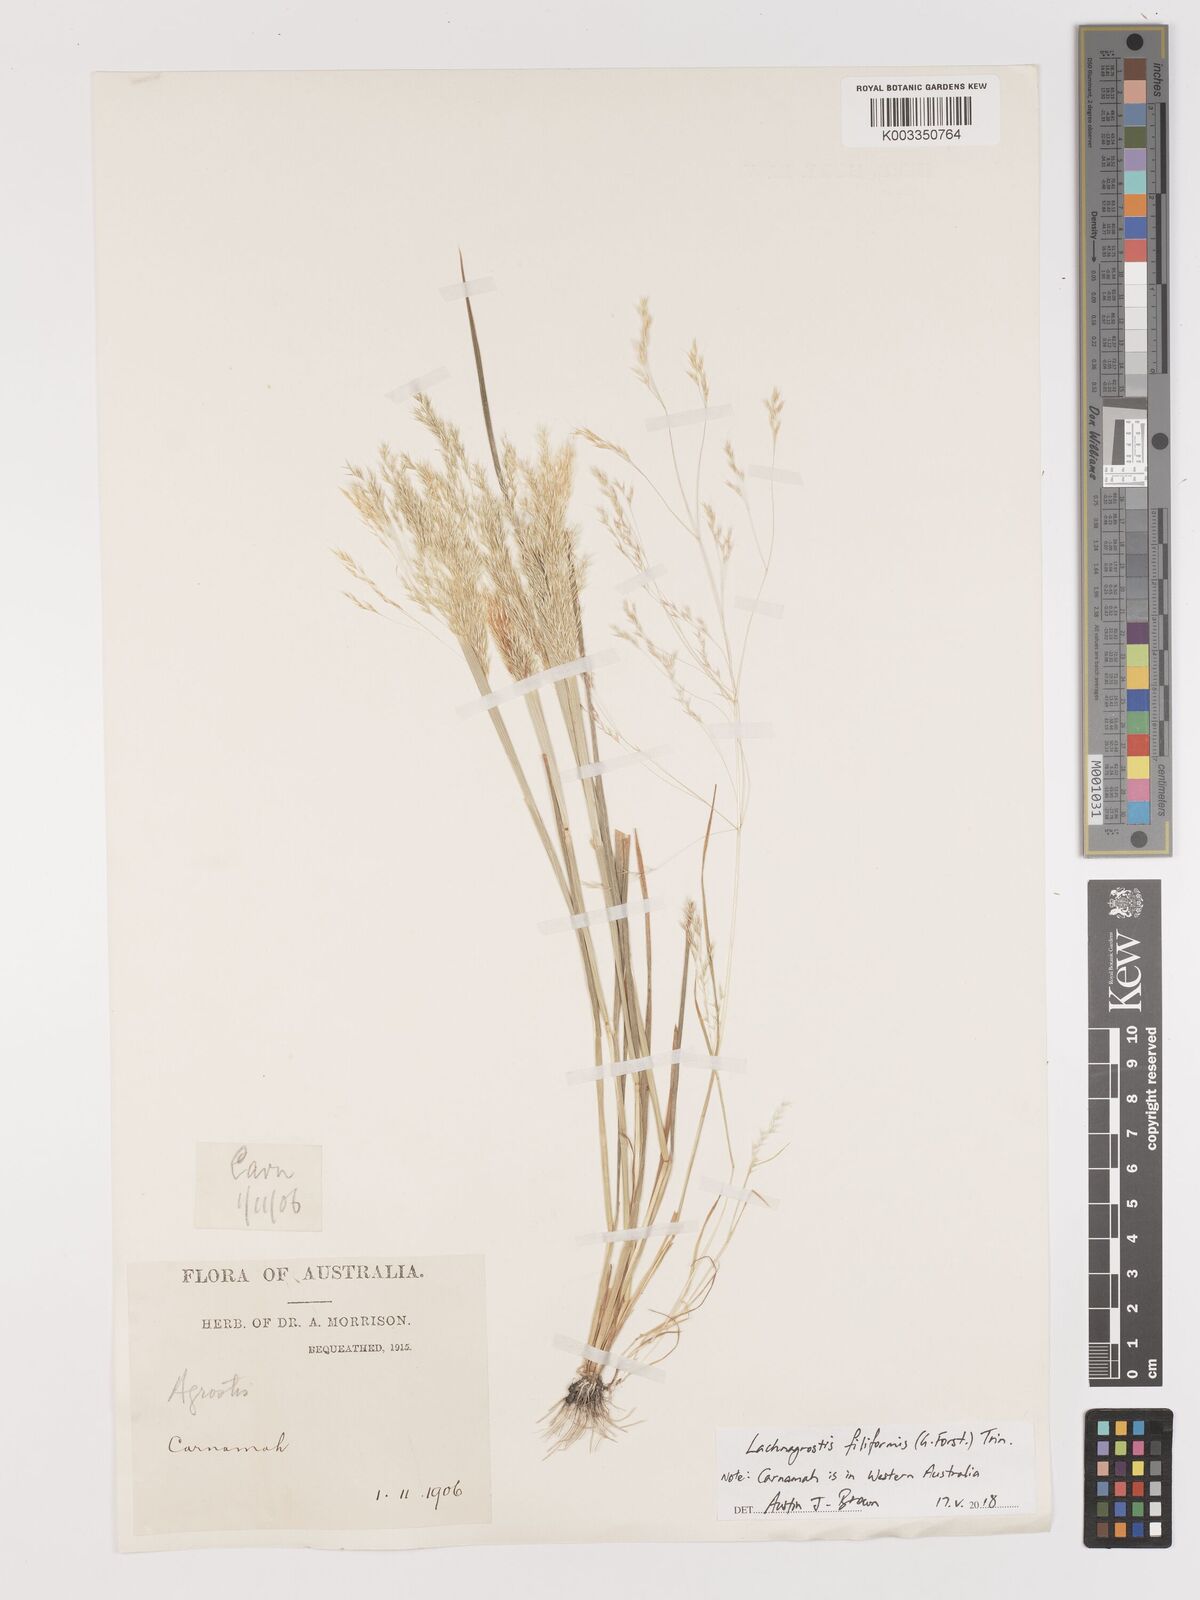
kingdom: Plantae
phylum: Tracheophyta
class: Liliopsida
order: Poales
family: Poaceae
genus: Lachnagrostis
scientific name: Lachnagrostis filiformis
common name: Bentgrass
